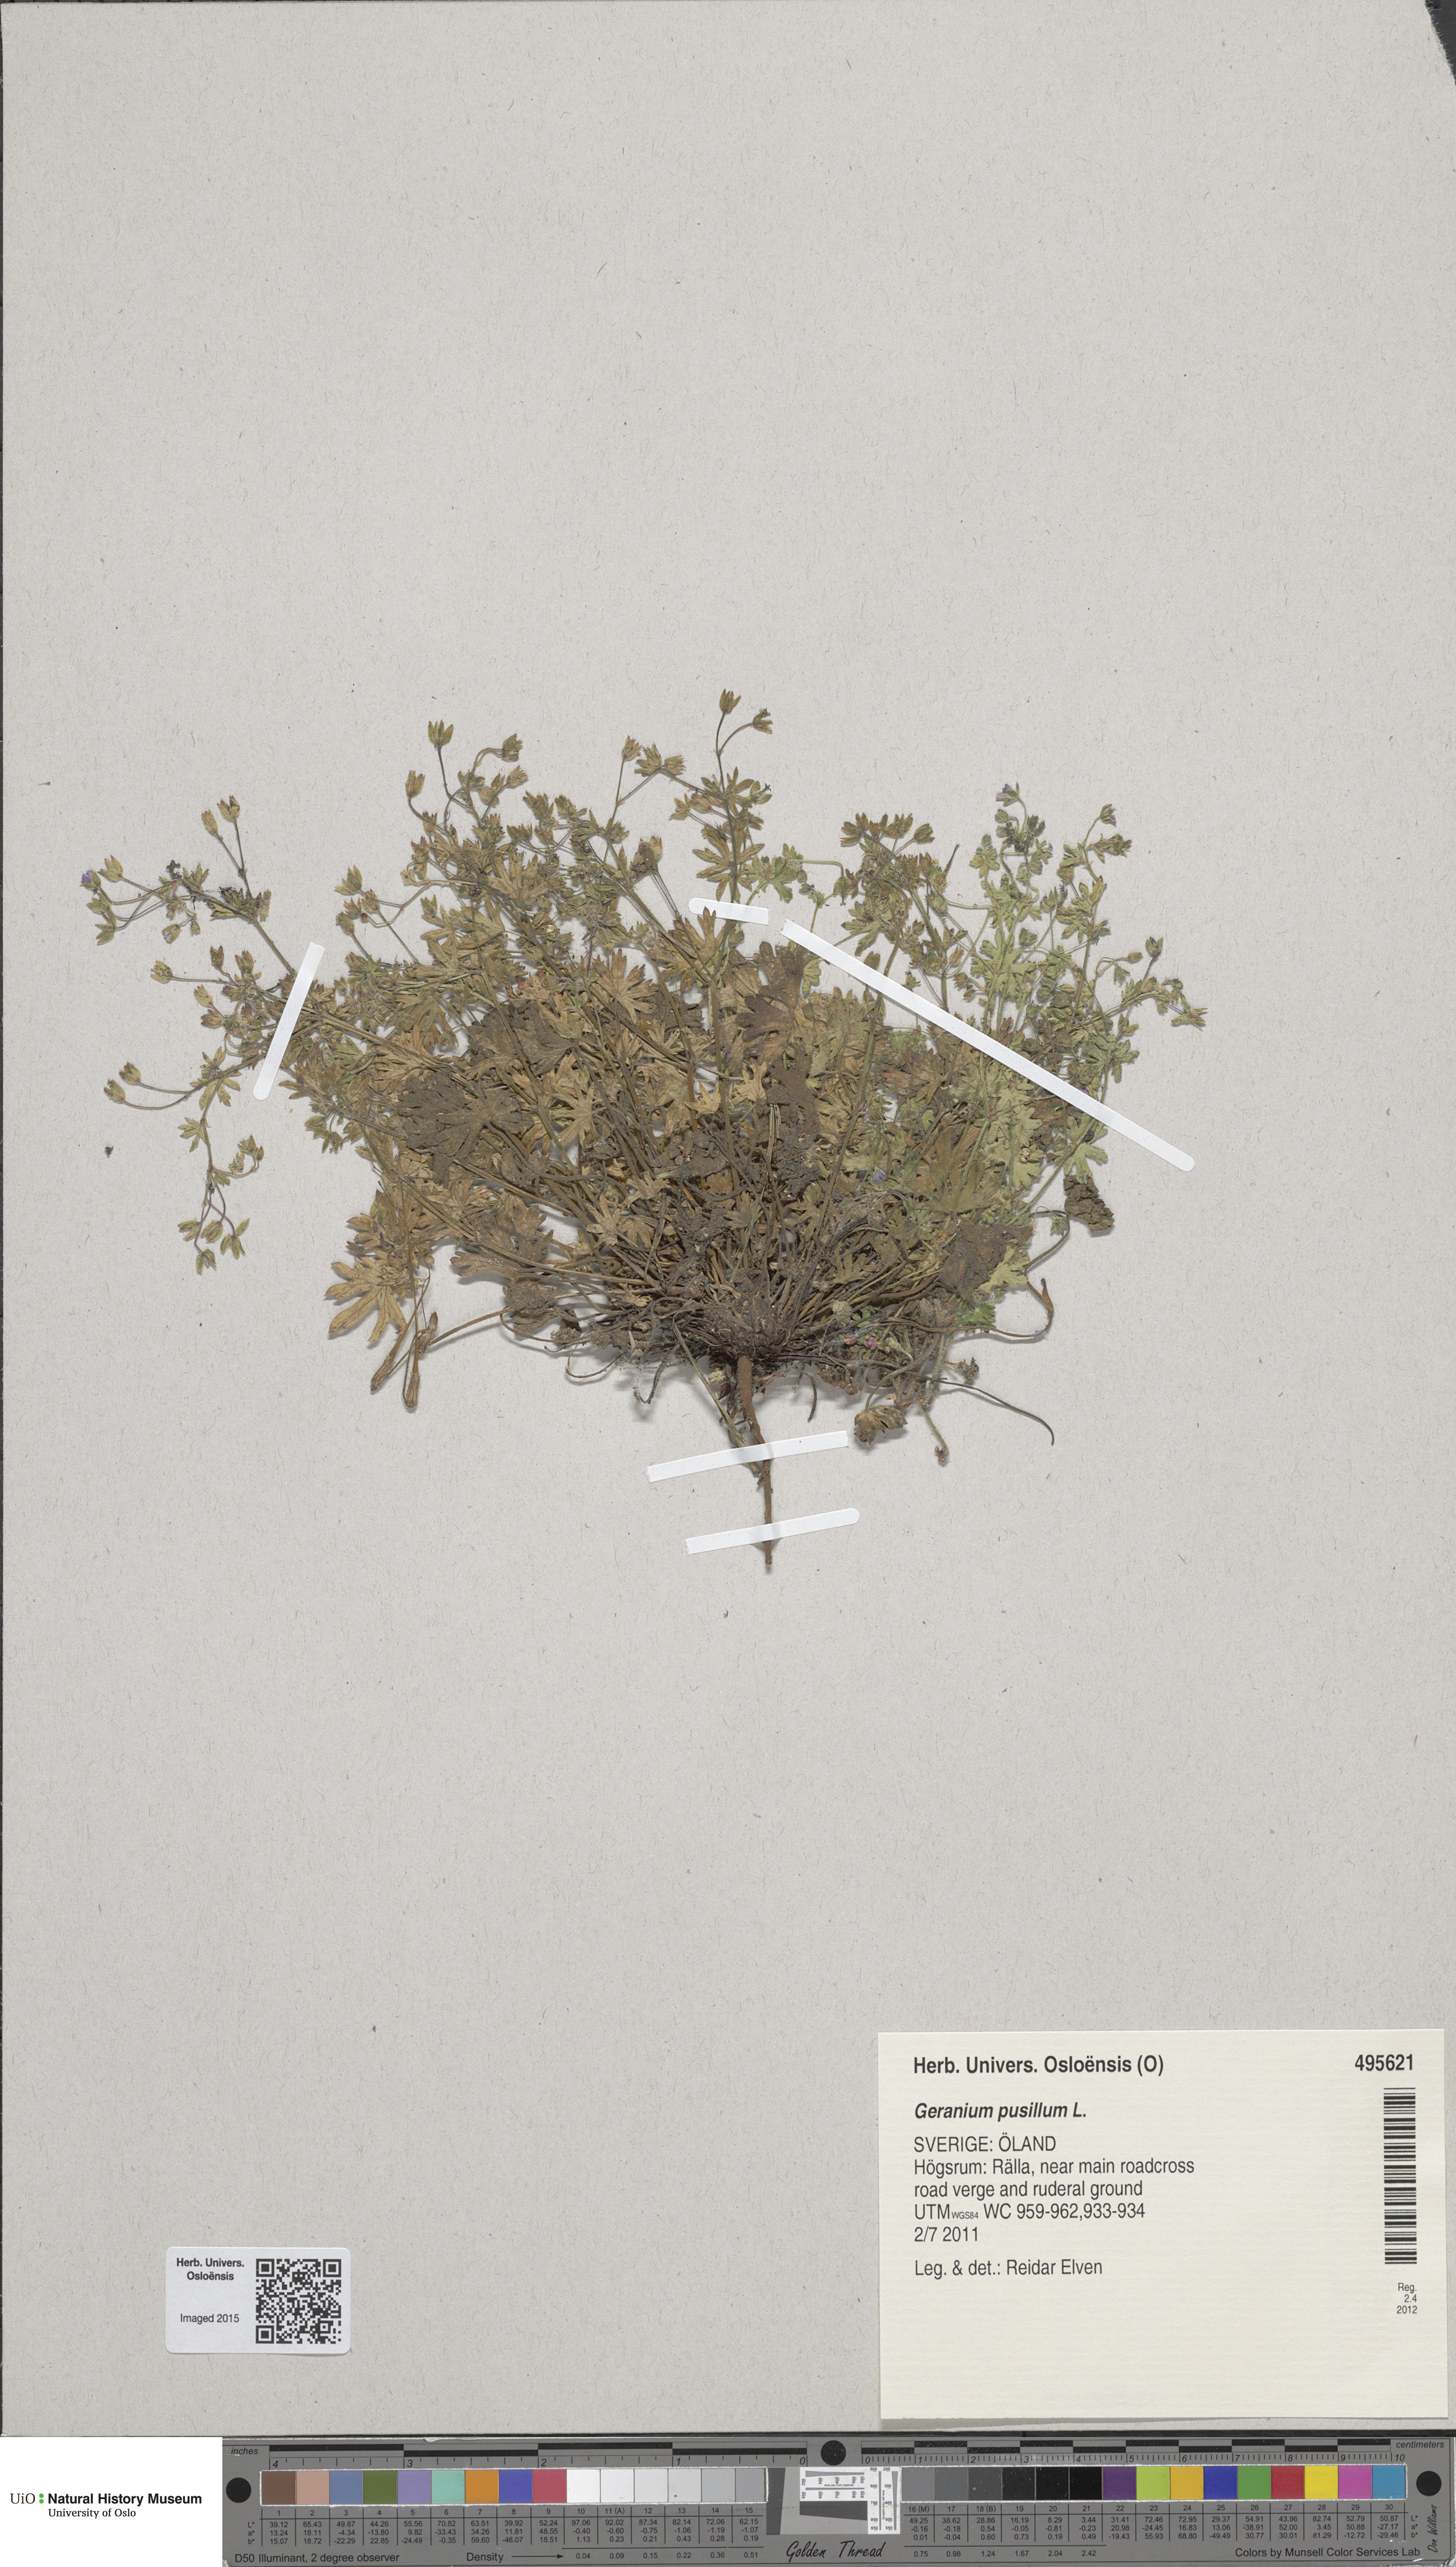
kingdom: Plantae
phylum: Tracheophyta
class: Magnoliopsida
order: Geraniales
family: Geraniaceae
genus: Geranium
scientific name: Geranium pusillum
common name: Small geranium
